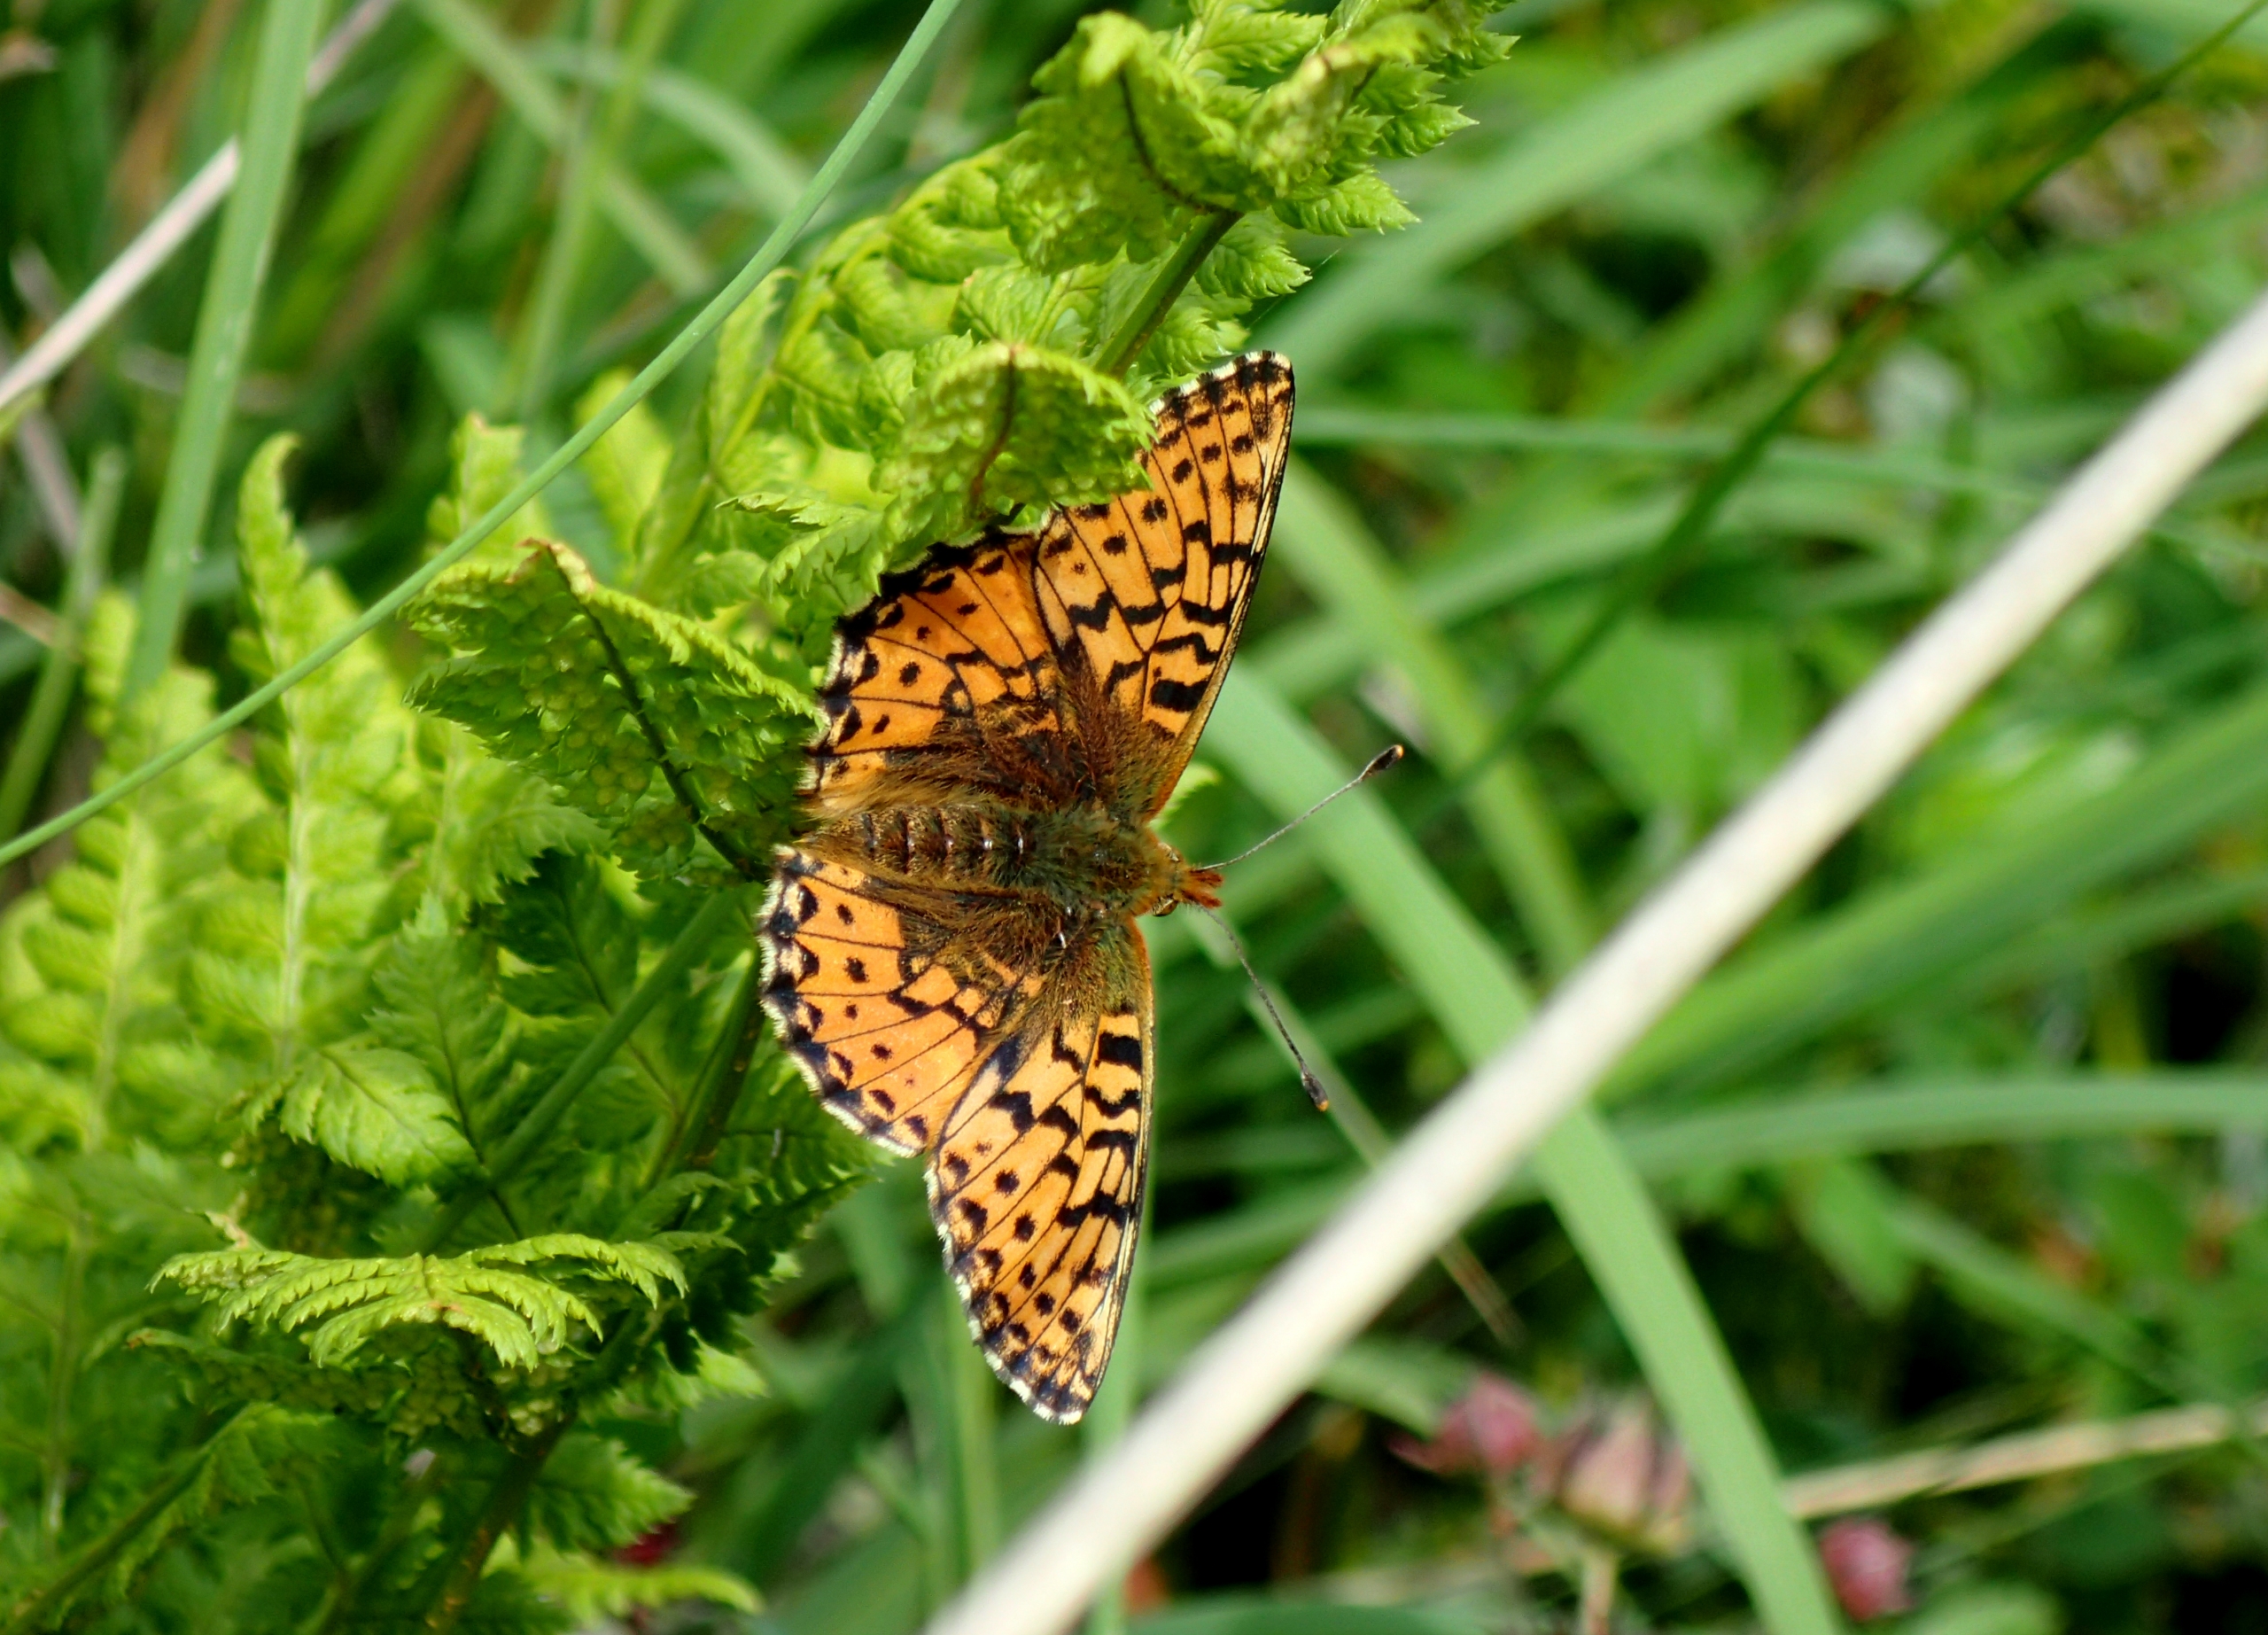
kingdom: Animalia
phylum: Arthropoda
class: Insecta
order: Lepidoptera
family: Nymphalidae
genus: Boloria
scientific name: Boloria aquilonaris
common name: Moseperlemorsommerfugl
